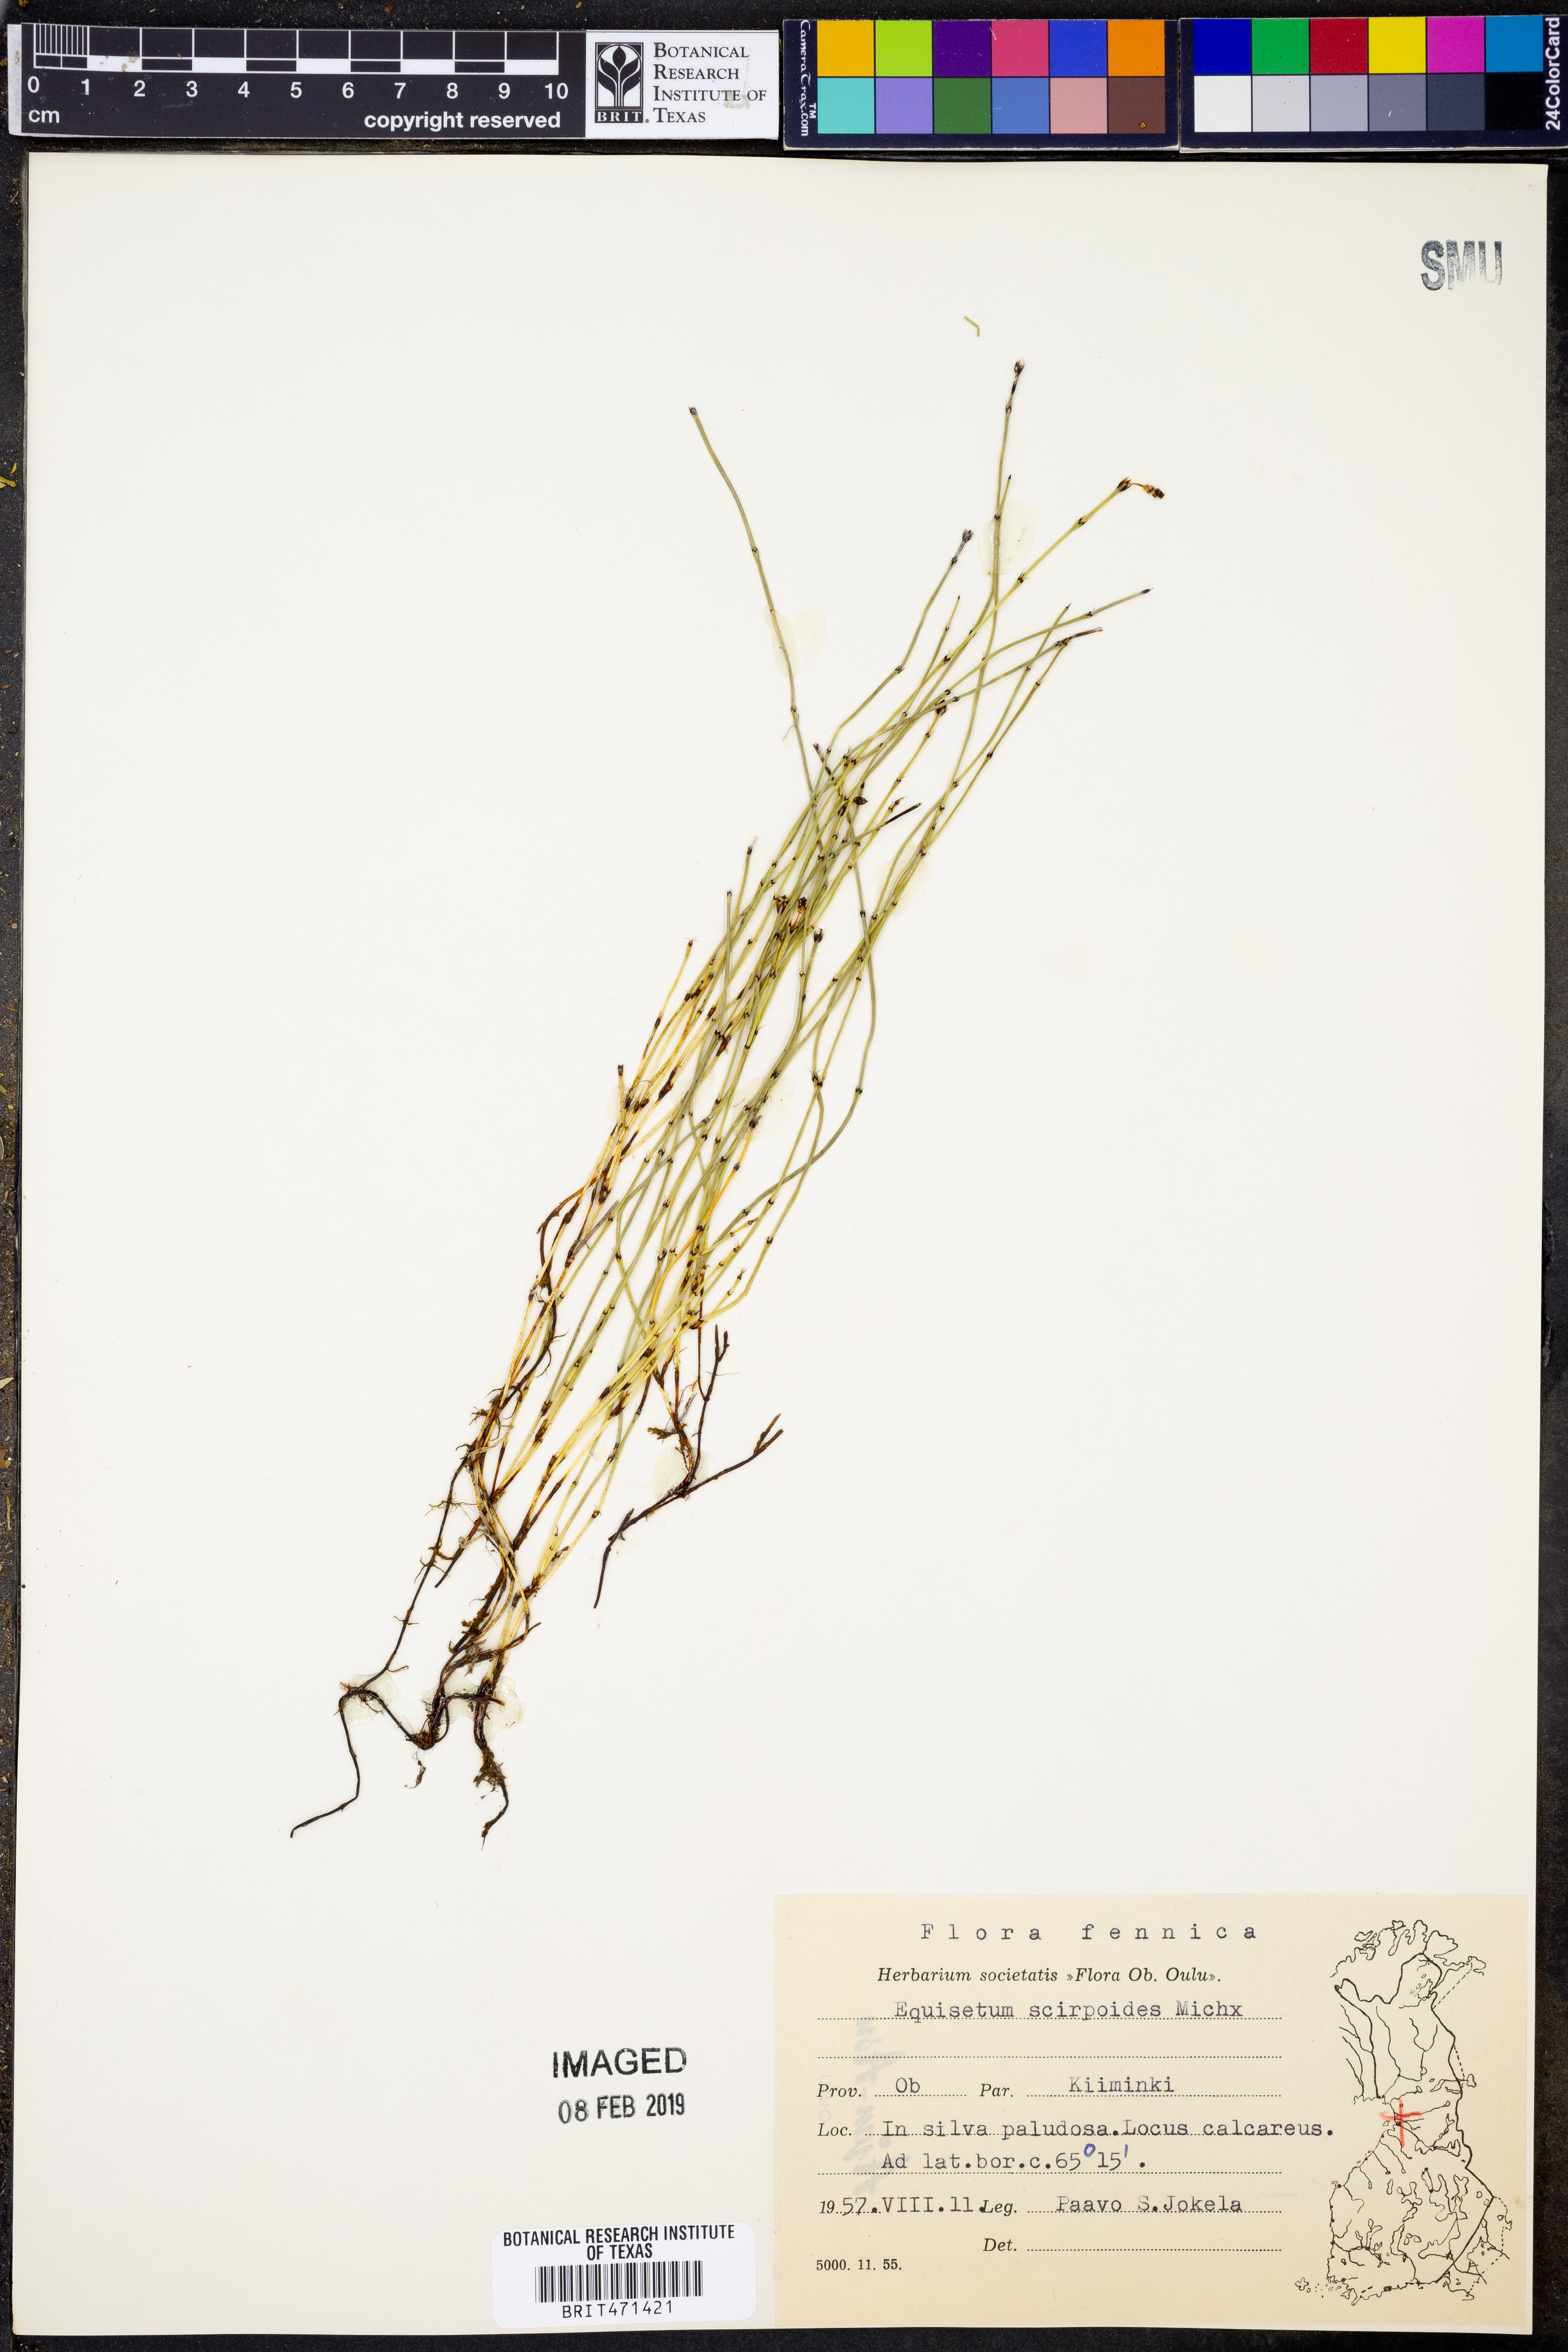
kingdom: Plantae
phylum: Tracheophyta
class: Polypodiopsida
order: Equisetales
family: Equisetaceae
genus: Equisetum
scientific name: Equisetum scirpoides
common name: Delicate horsetail
